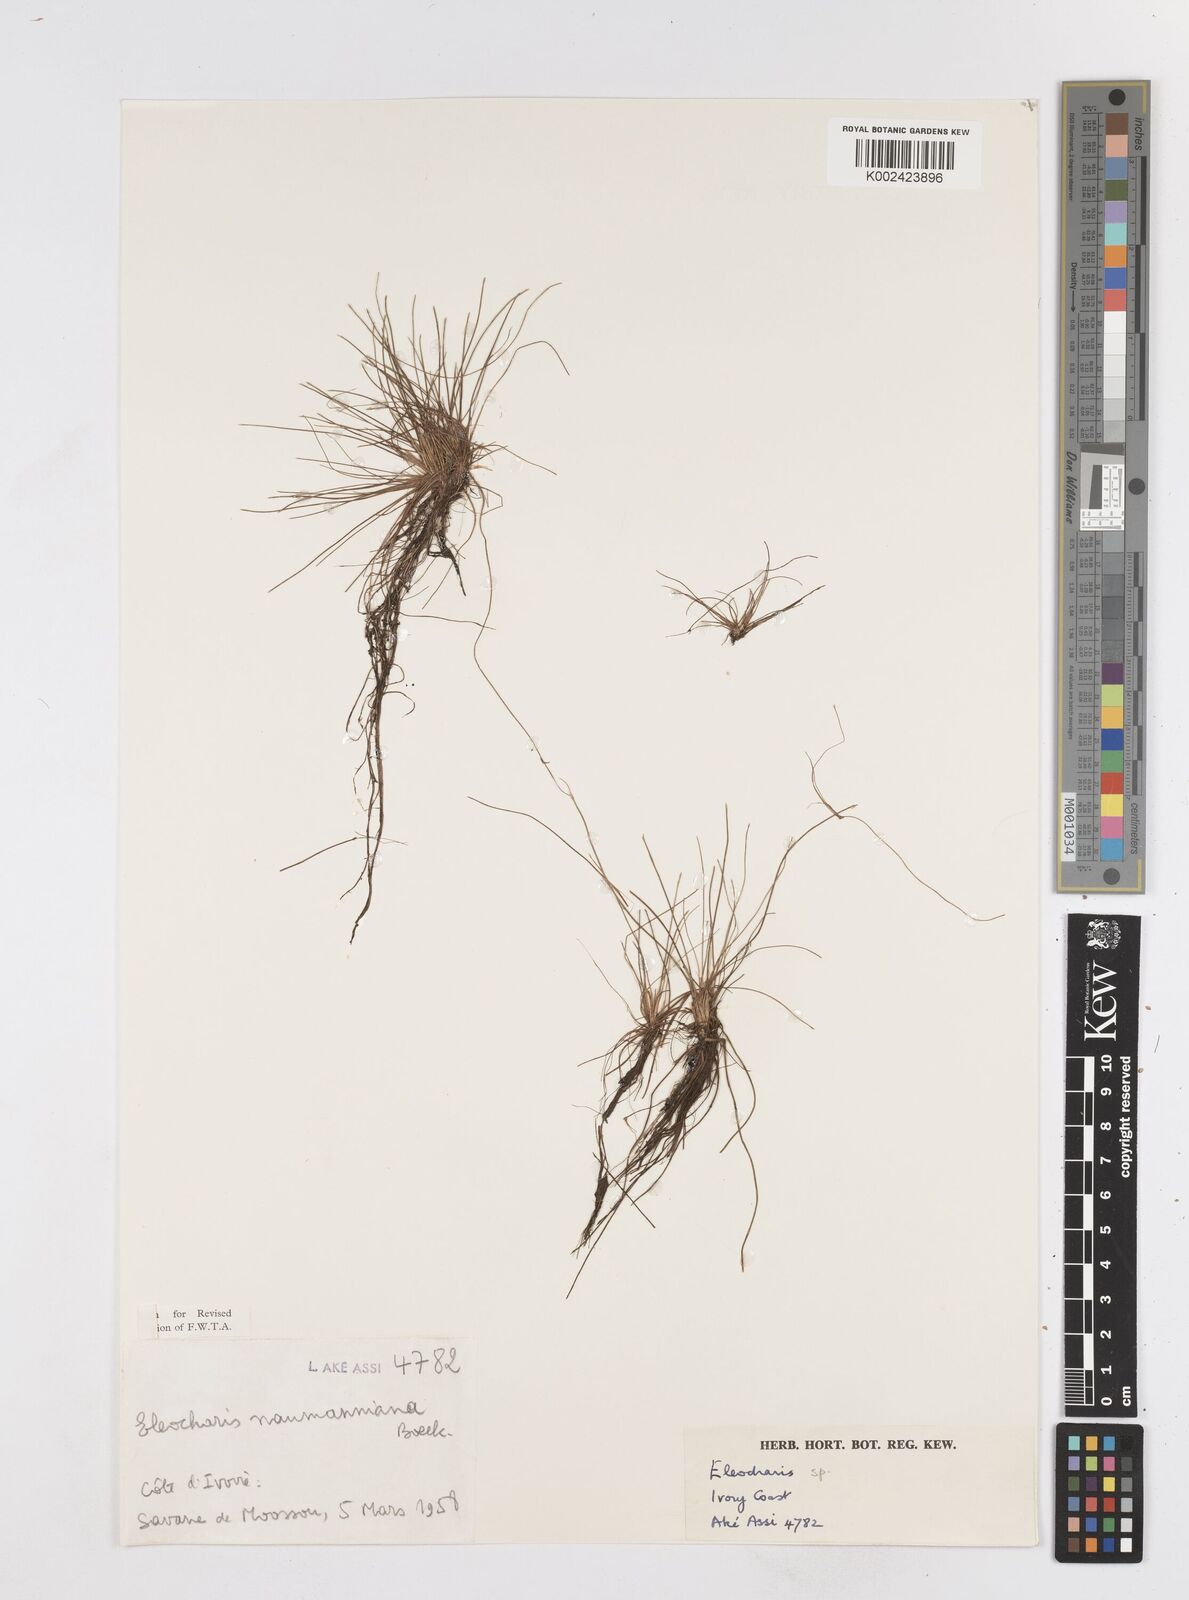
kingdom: Plantae
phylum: Tracheophyta
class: Liliopsida
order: Poales
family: Cyperaceae
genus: Eleocharis
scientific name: Eleocharis naumanniana
